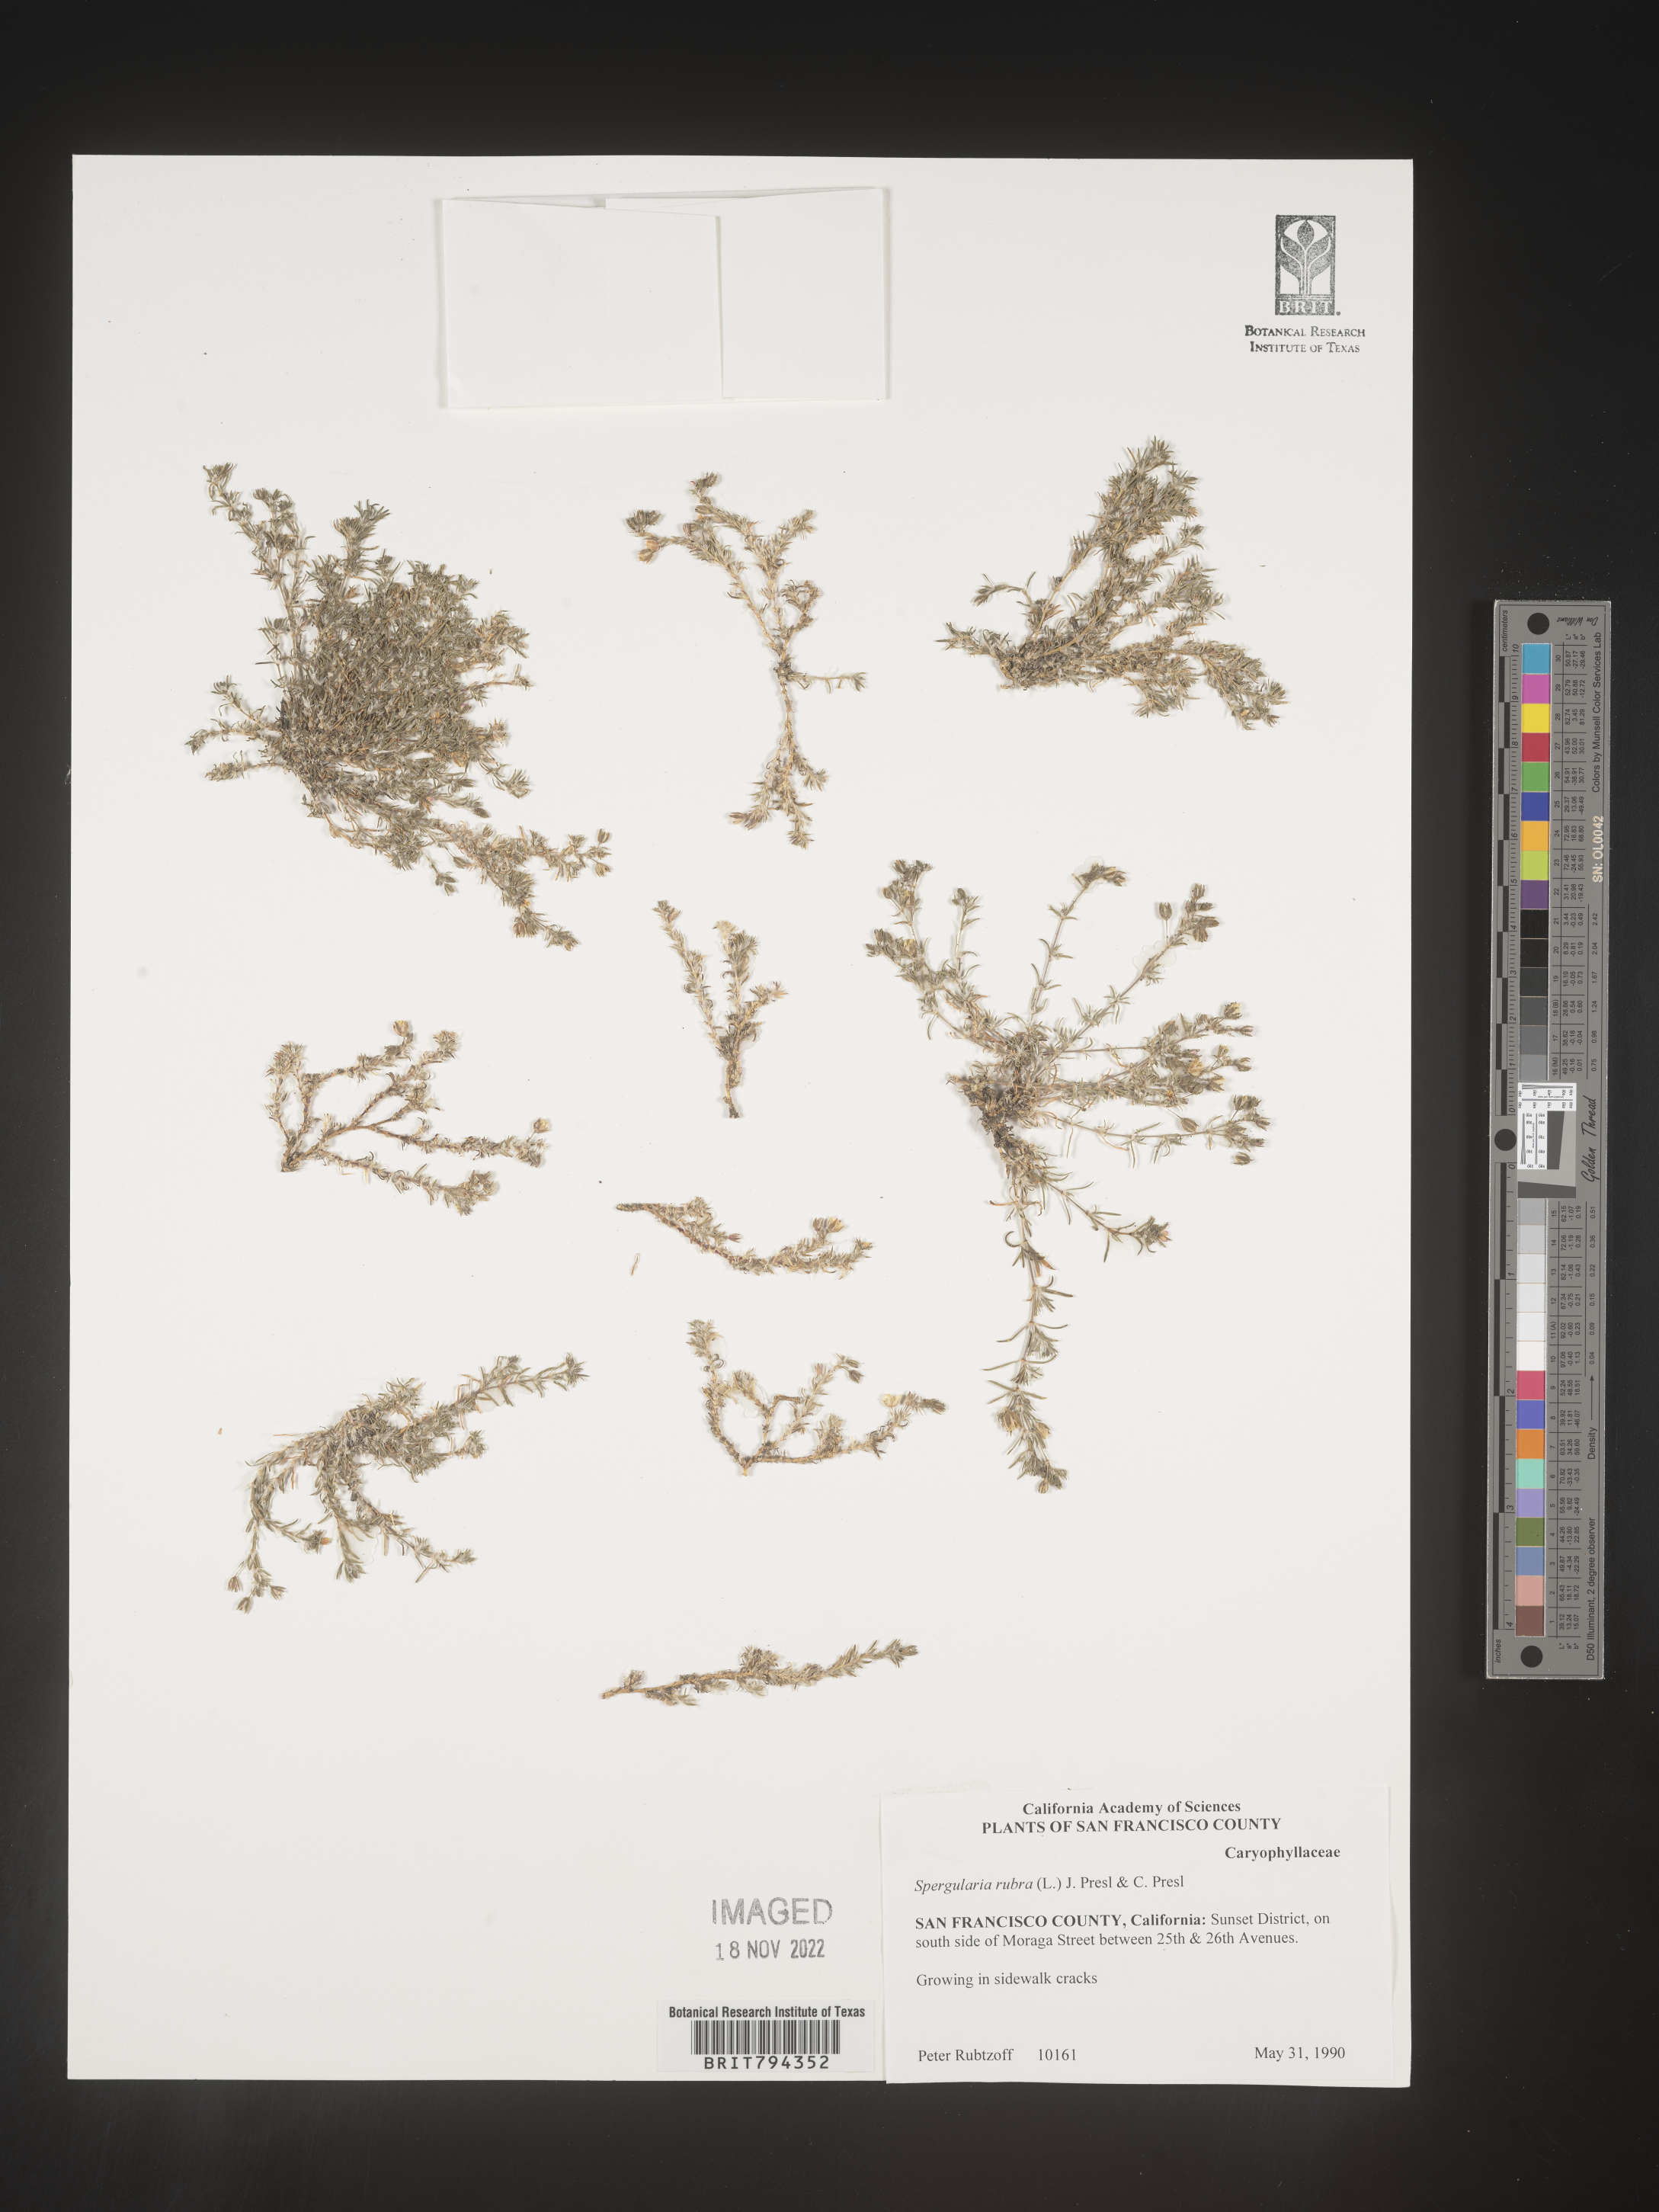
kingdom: Plantae
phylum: Tracheophyta
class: Magnoliopsida
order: Caryophyllales
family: Caryophyllaceae
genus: Spergularia
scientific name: Spergularia rubra
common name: Red sand-spurrey
